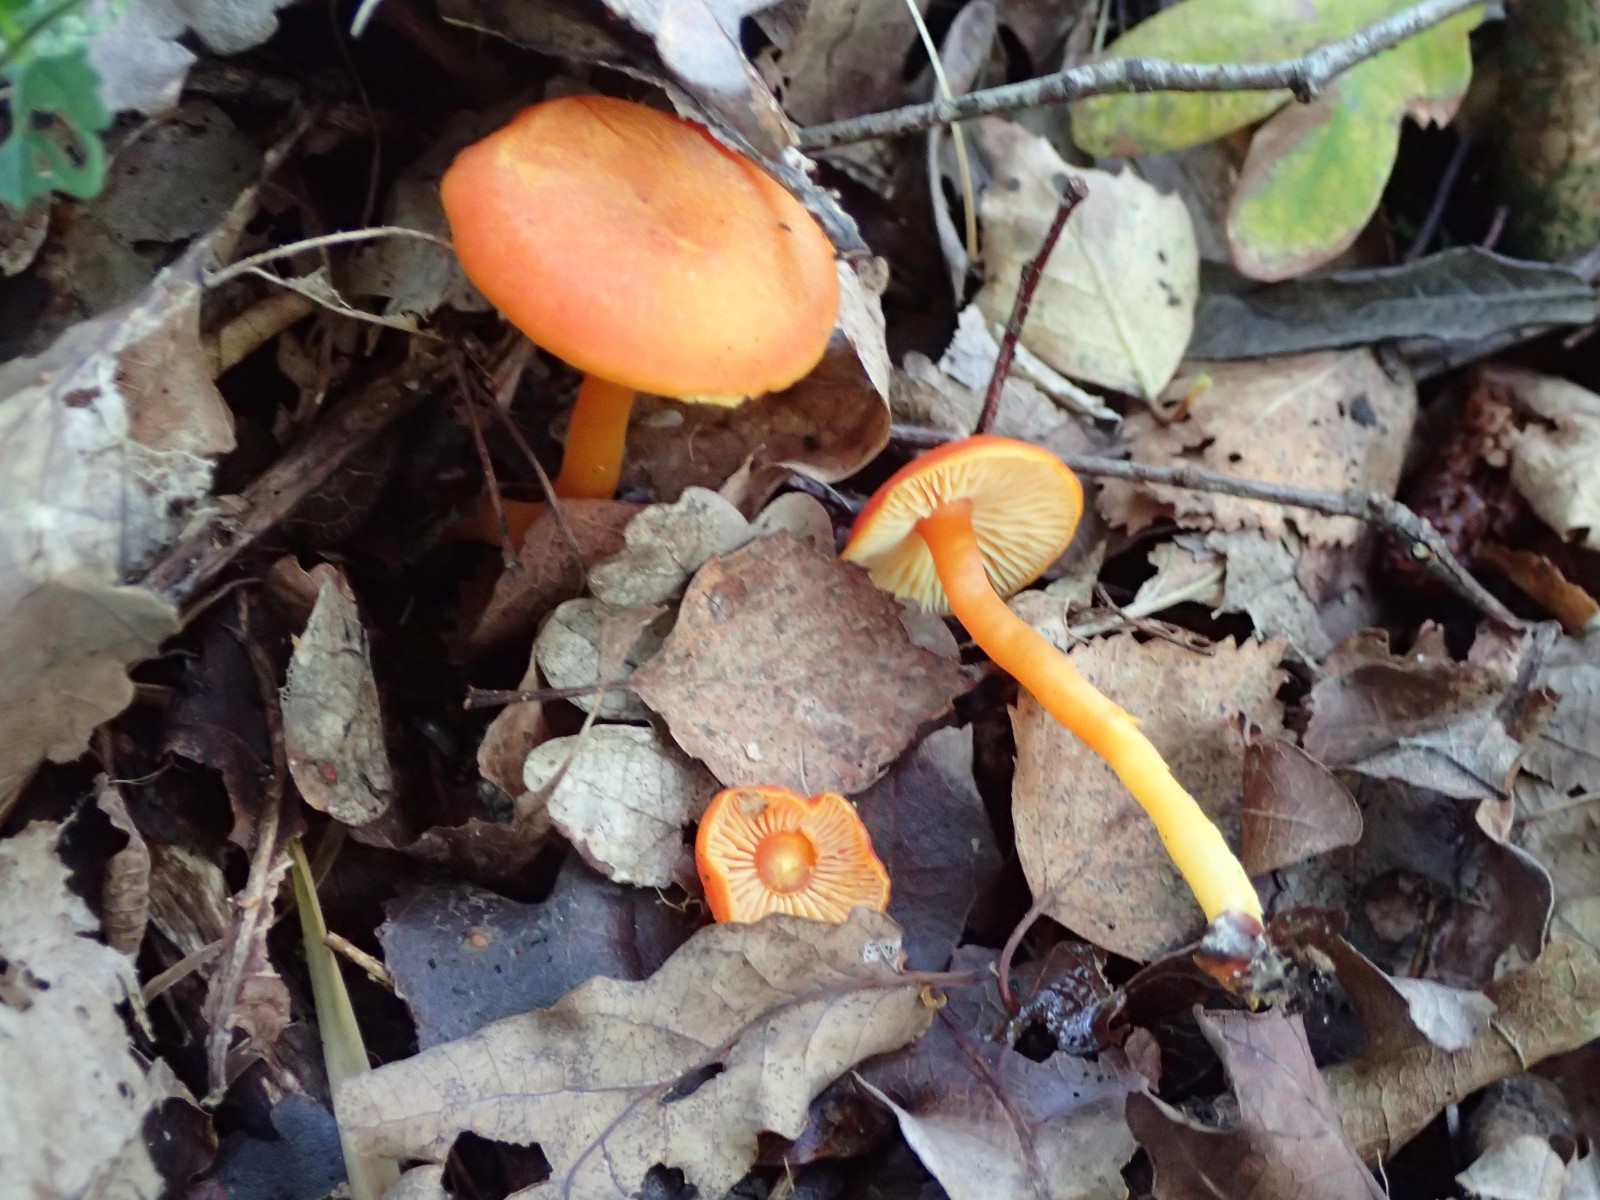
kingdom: Fungi
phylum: Basidiomycota
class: Agaricomycetes
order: Agaricales
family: Hygrophoraceae
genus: Hygrocybe
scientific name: Hygrocybe miniata
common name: mønje-vokshat
